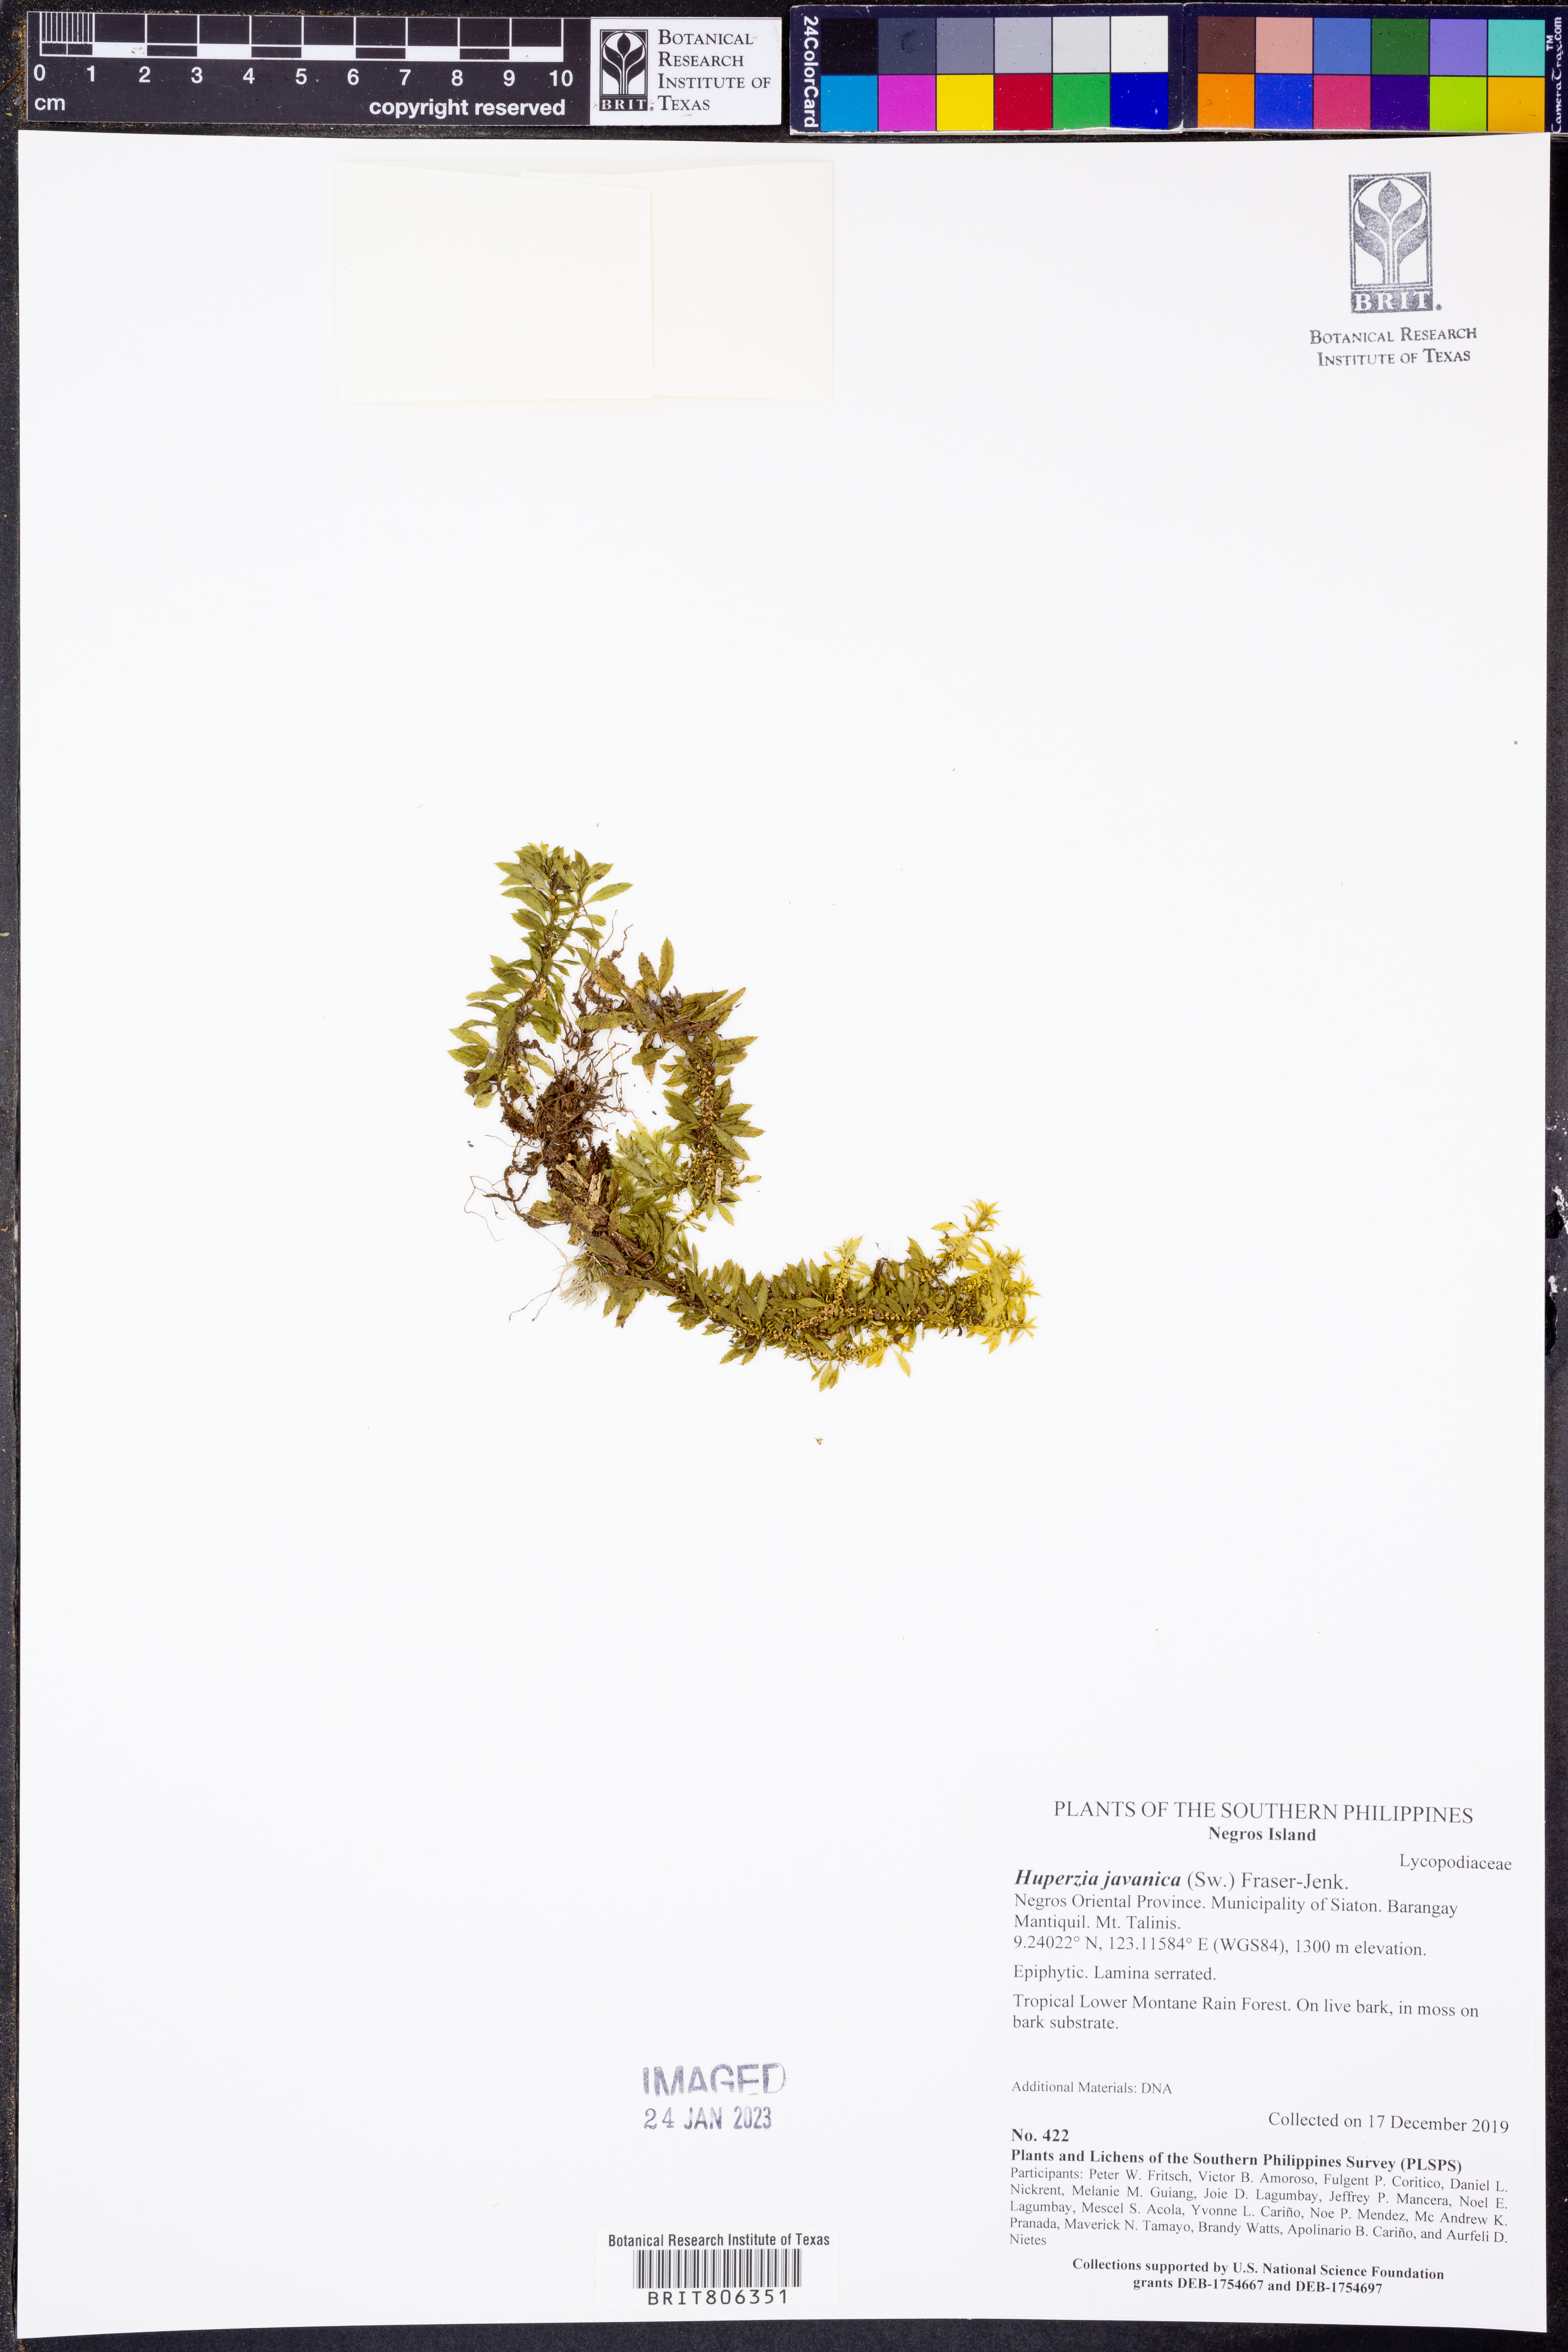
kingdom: Plantae
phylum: Tracheophyta
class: Lycopodiopsida
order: Lycopodiales
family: Lycopodiaceae
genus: Huperzia
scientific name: Huperzia javanica
